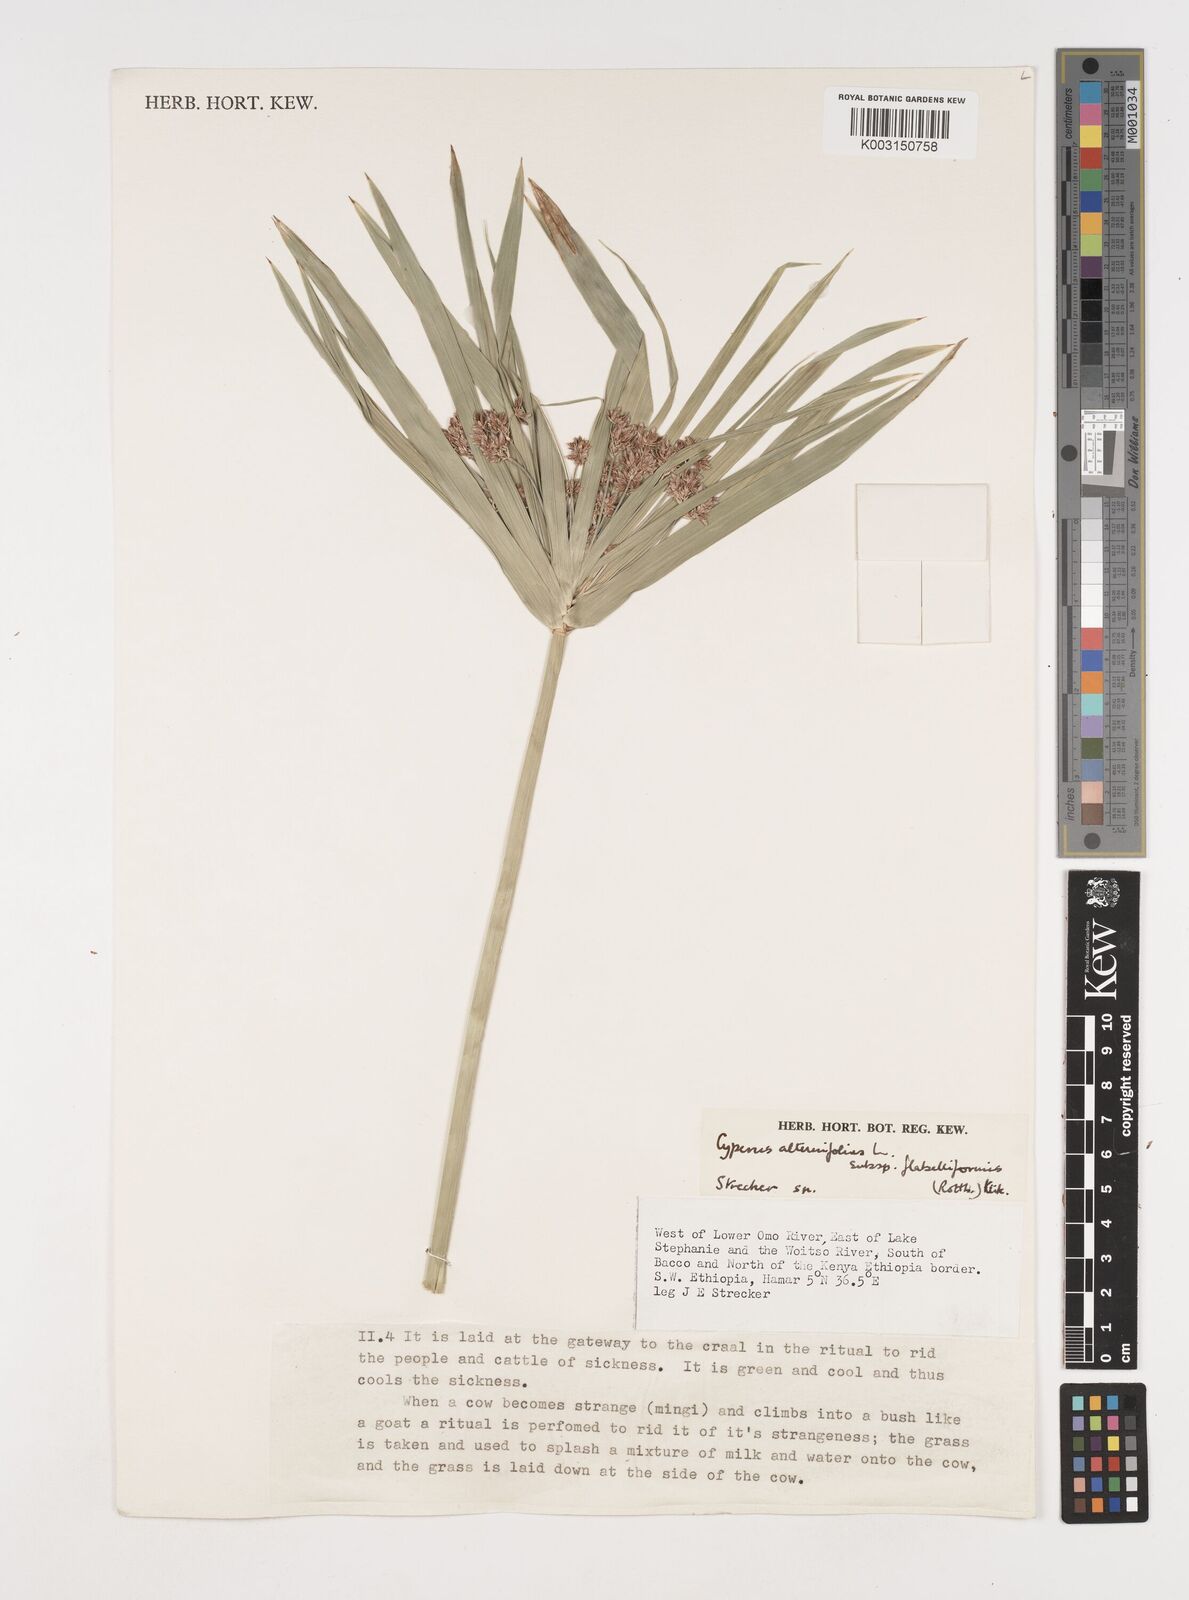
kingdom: Plantae
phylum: Tracheophyta
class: Liliopsida
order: Poales
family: Cyperaceae
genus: Cyperus
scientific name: Cyperus alternifolius
